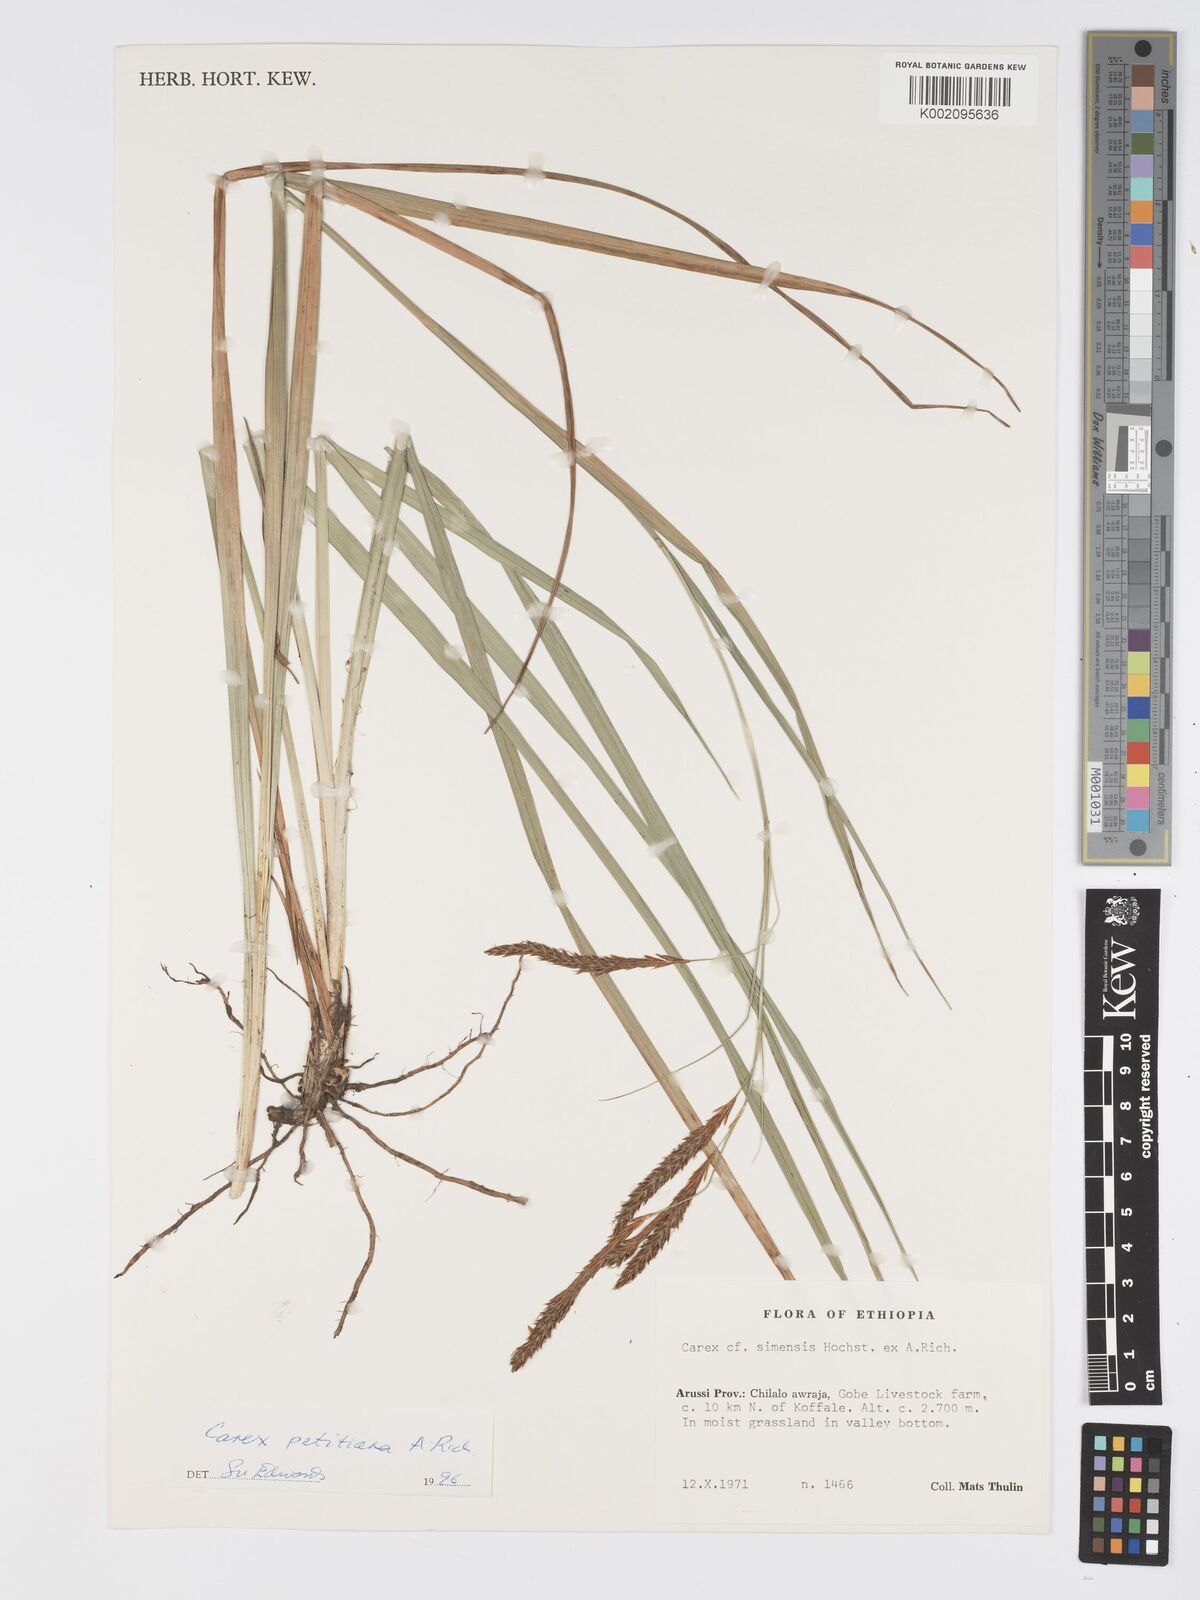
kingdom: Plantae
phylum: Tracheophyta
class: Liliopsida
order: Poales
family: Cyperaceae
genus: Carex
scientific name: Carex petitiana
